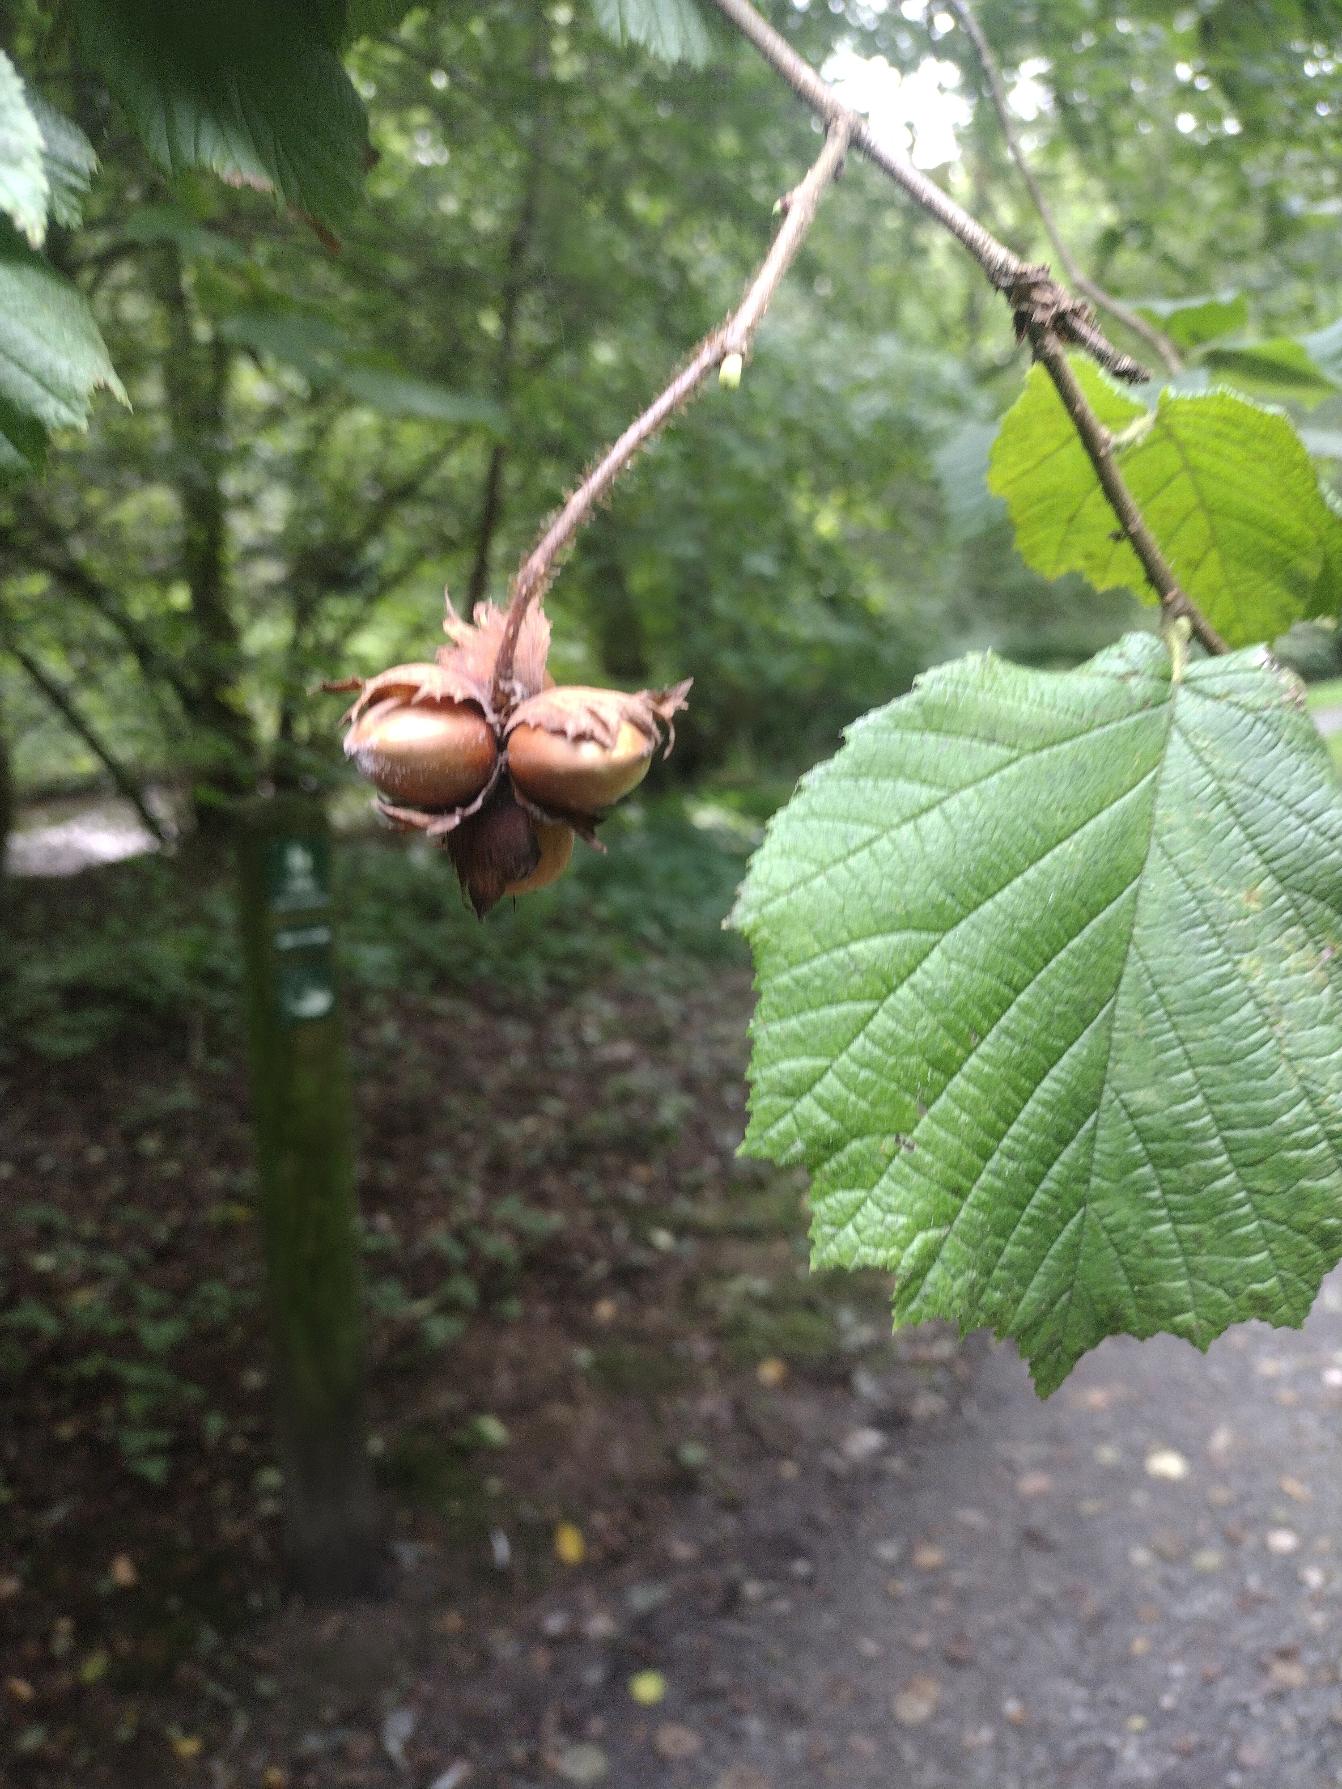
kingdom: Plantae
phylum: Tracheophyta
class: Magnoliopsida
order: Fagales
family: Betulaceae
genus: Corylus
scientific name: Corylus avellana
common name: Hassel
